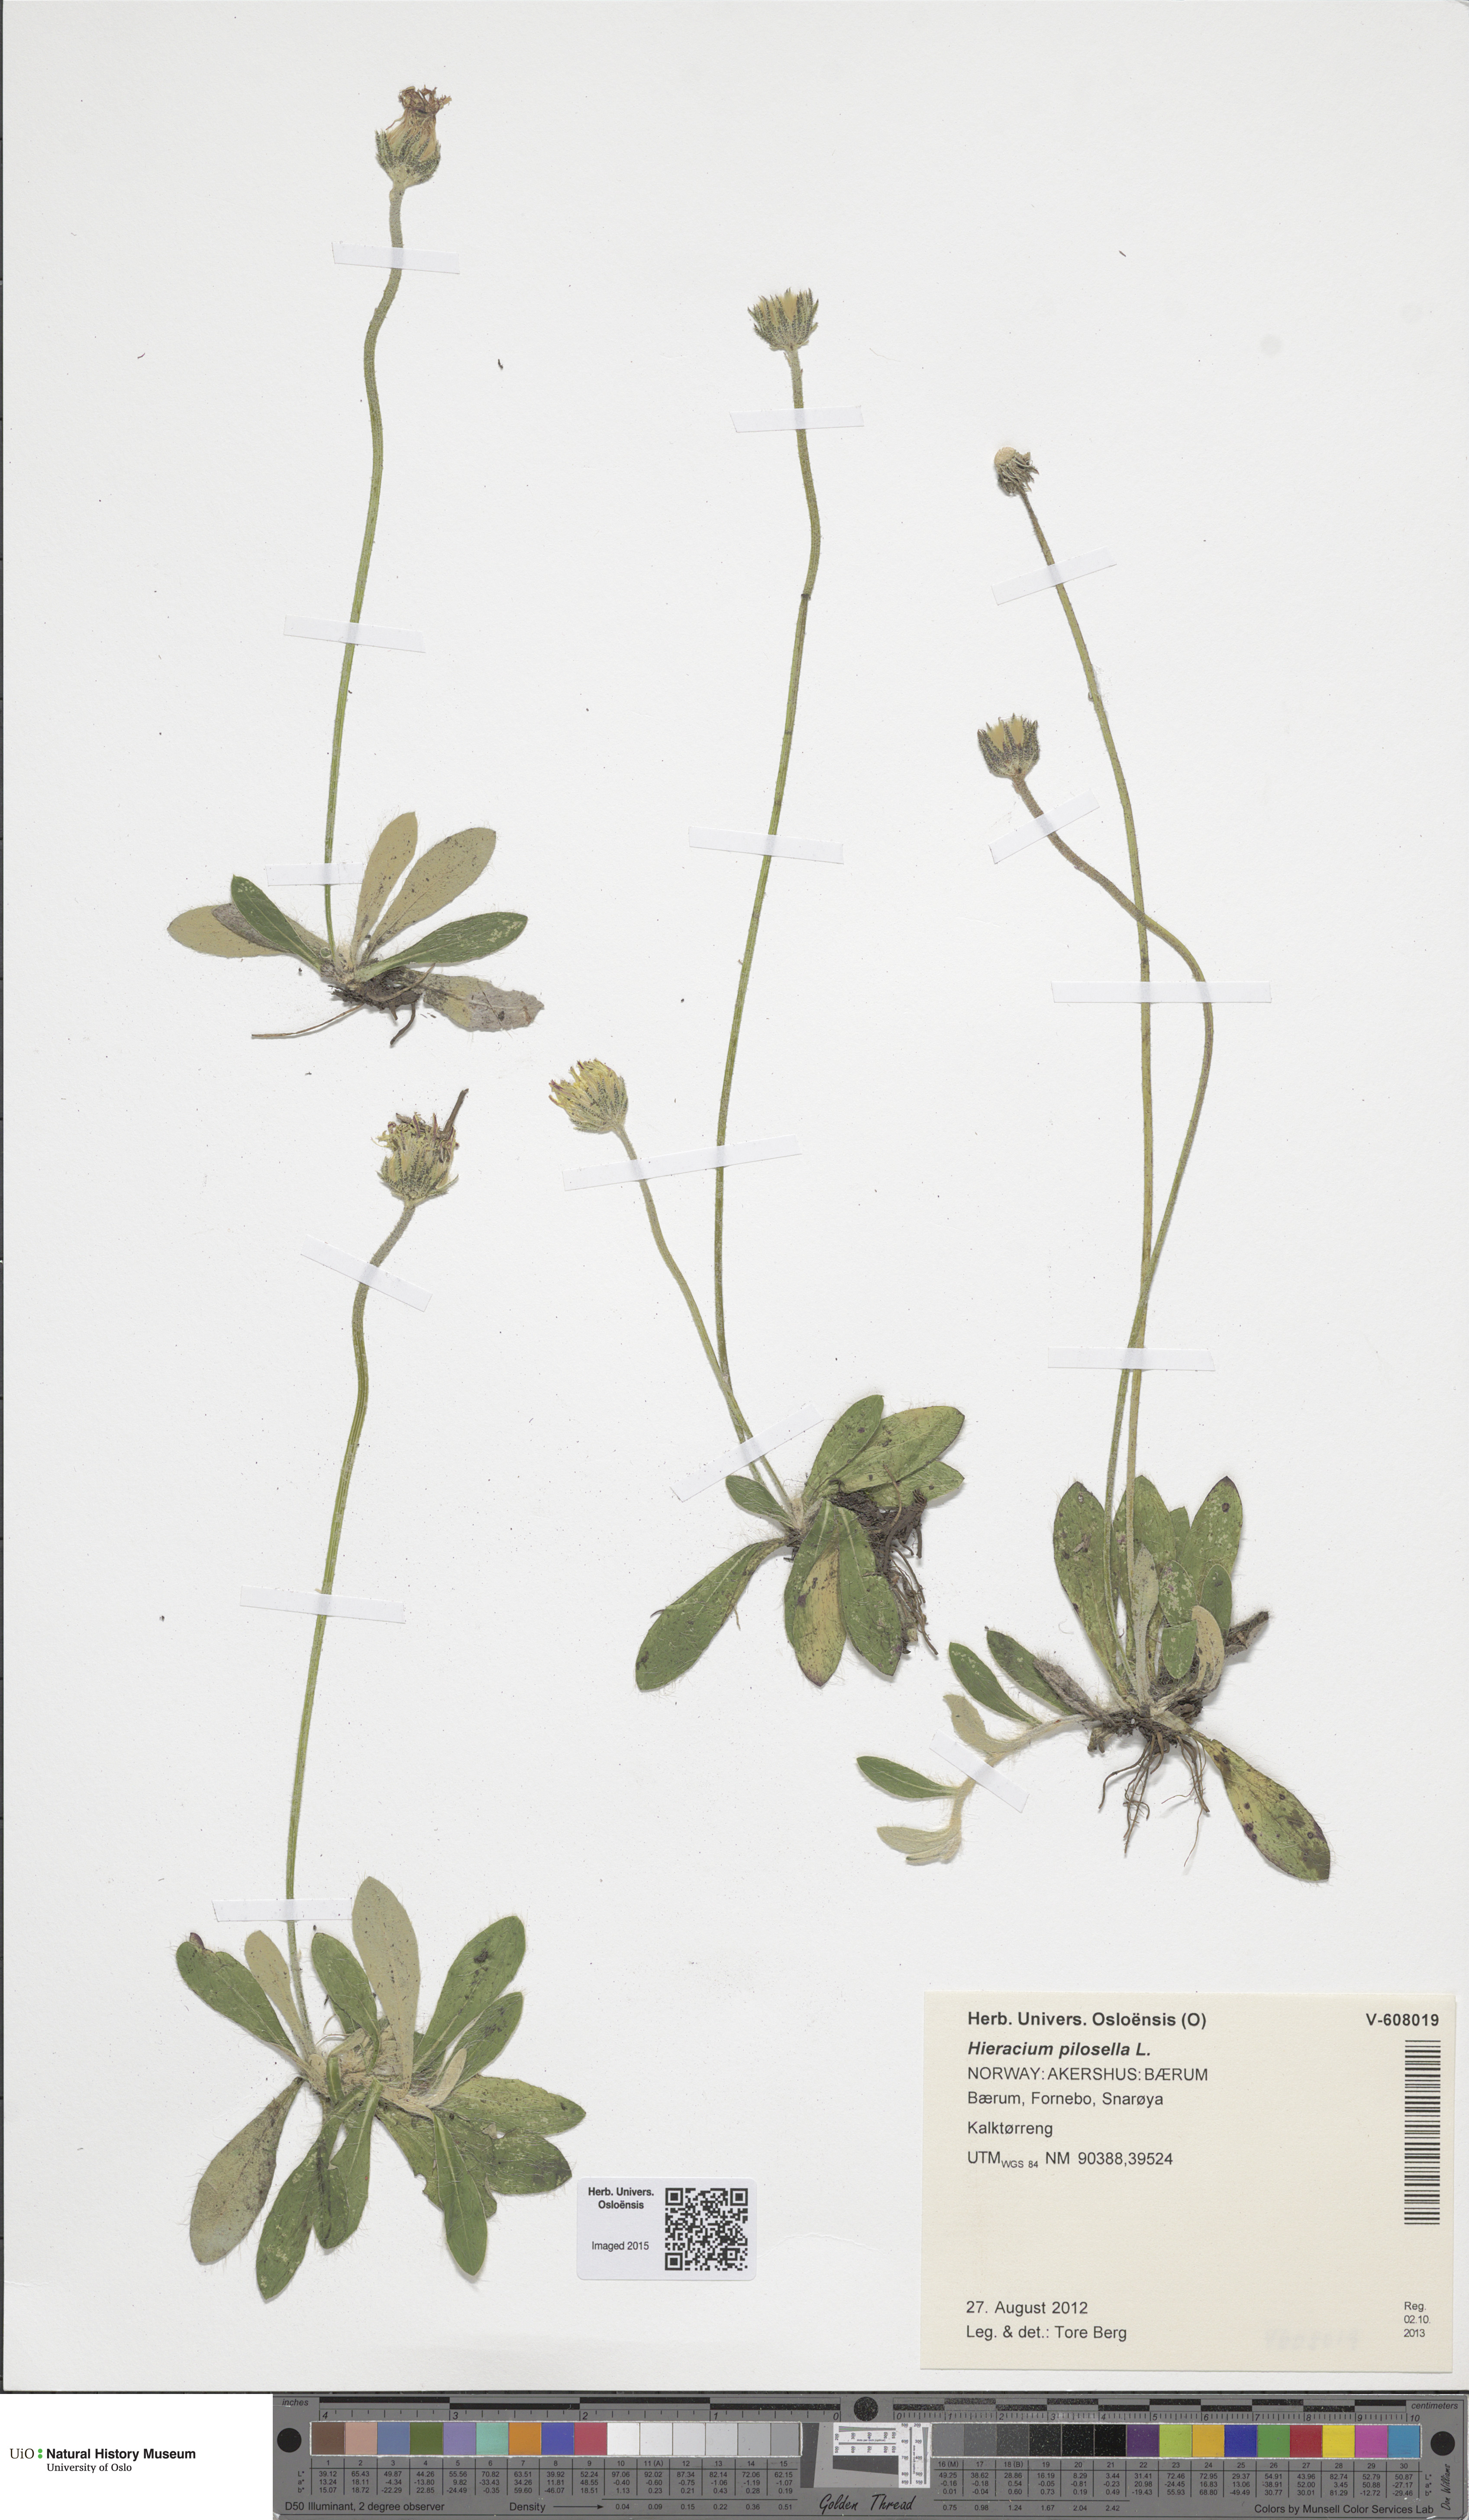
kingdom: Plantae
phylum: Tracheophyta
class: Magnoliopsida
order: Asterales
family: Asteraceae
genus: Pilosella
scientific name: Pilosella officinarum
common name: Mouse-ear hawkweed
